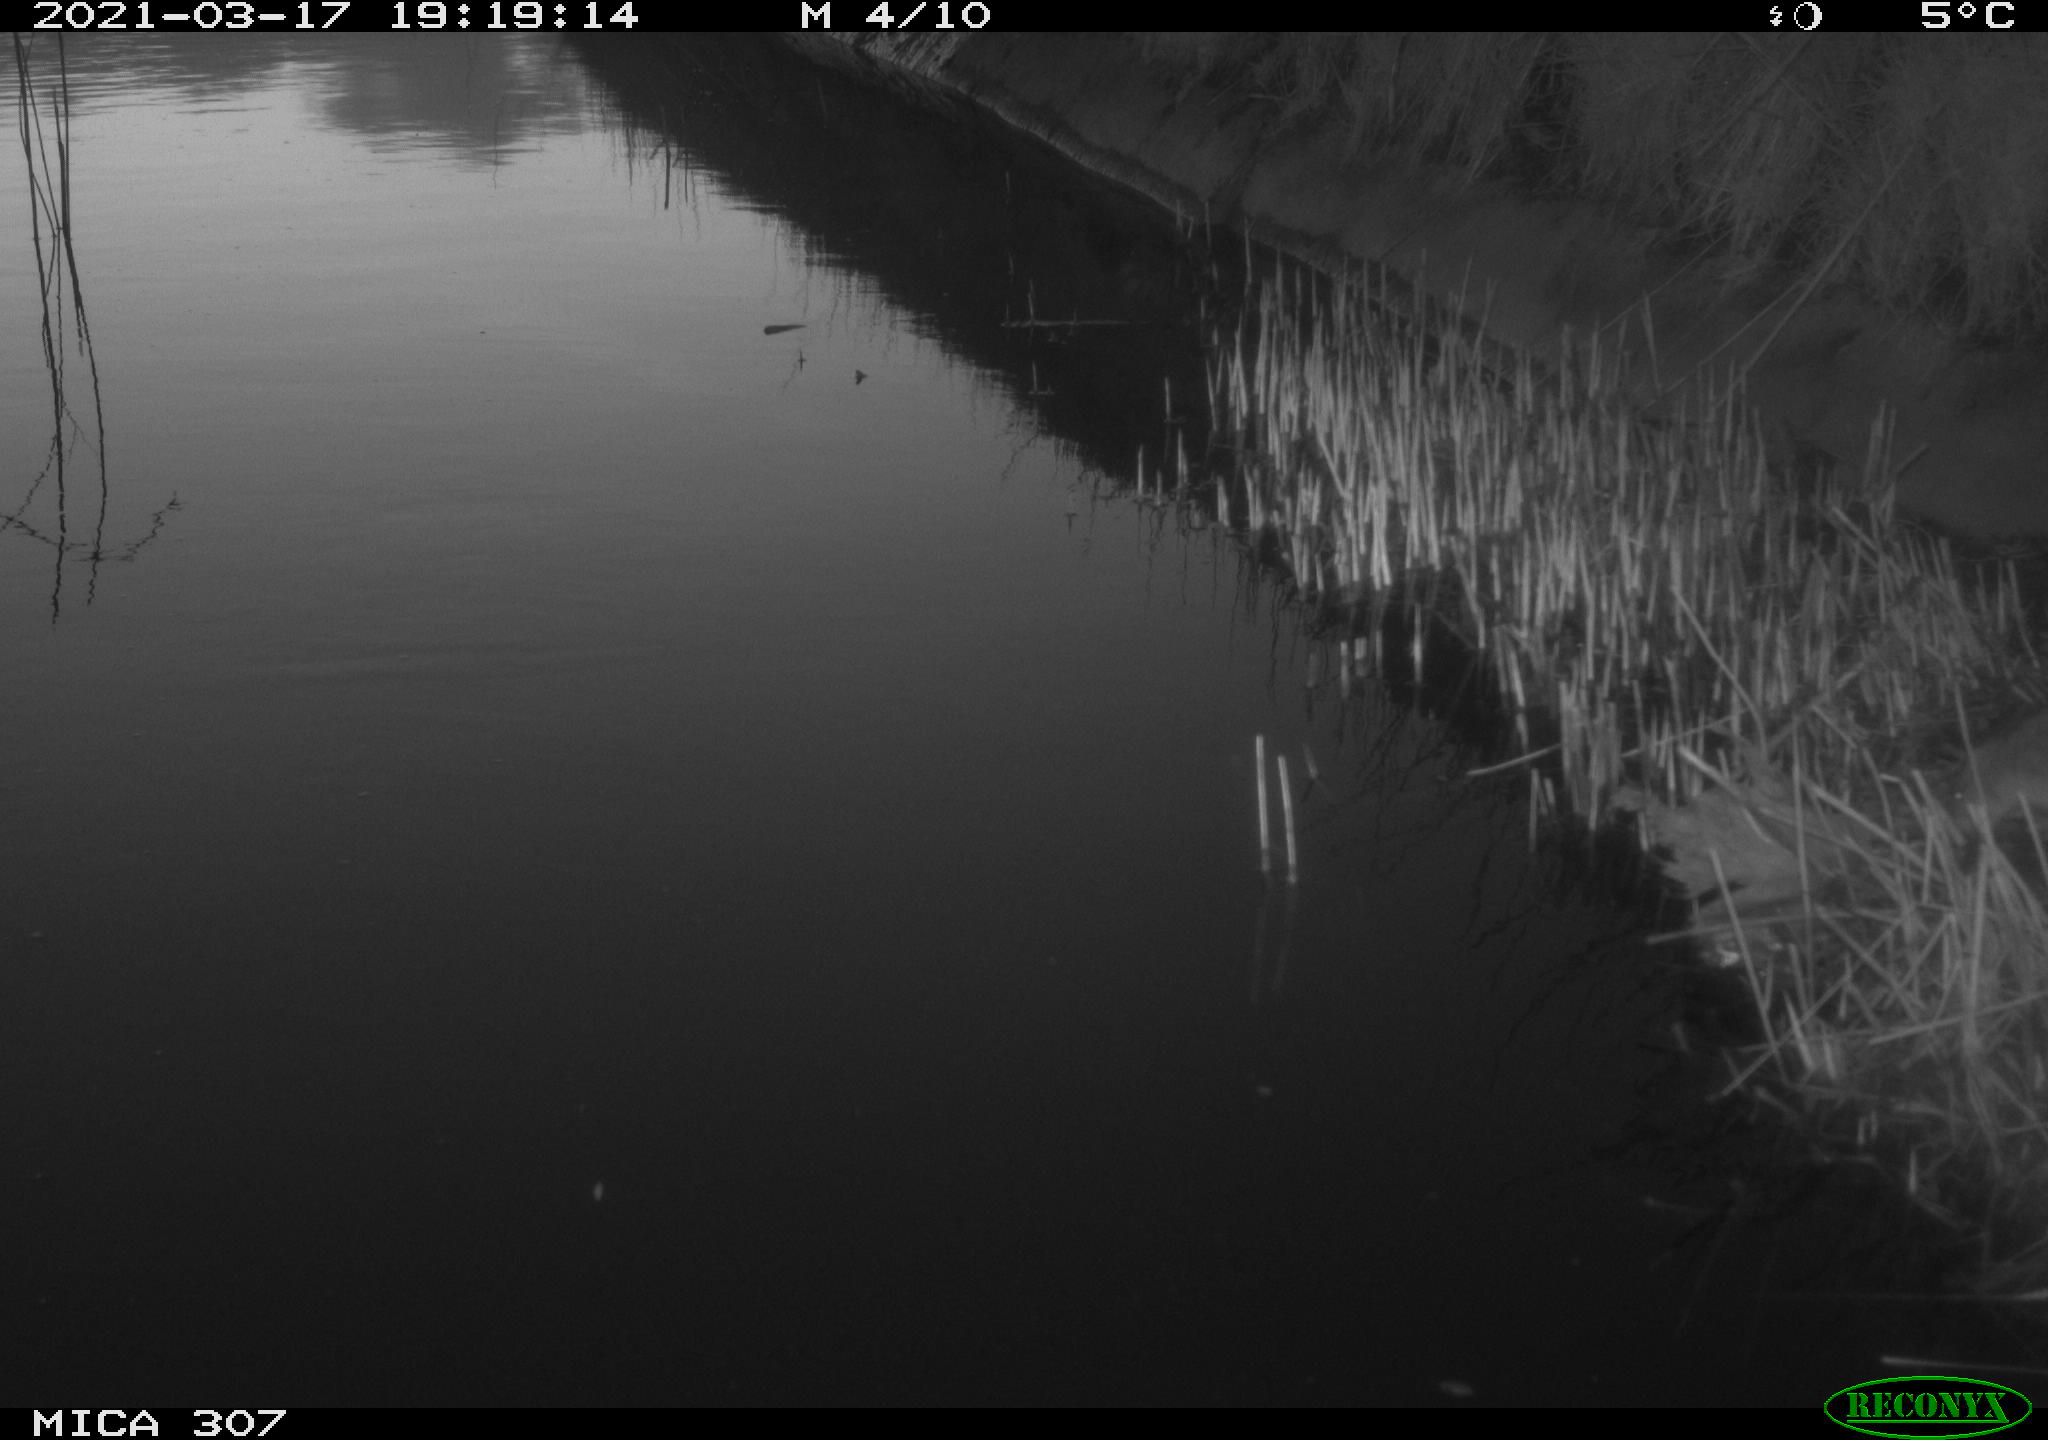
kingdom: Animalia
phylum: Chordata
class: Mammalia
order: Rodentia
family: Muridae
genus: Rattus
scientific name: Rattus norvegicus
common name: Brown rat
